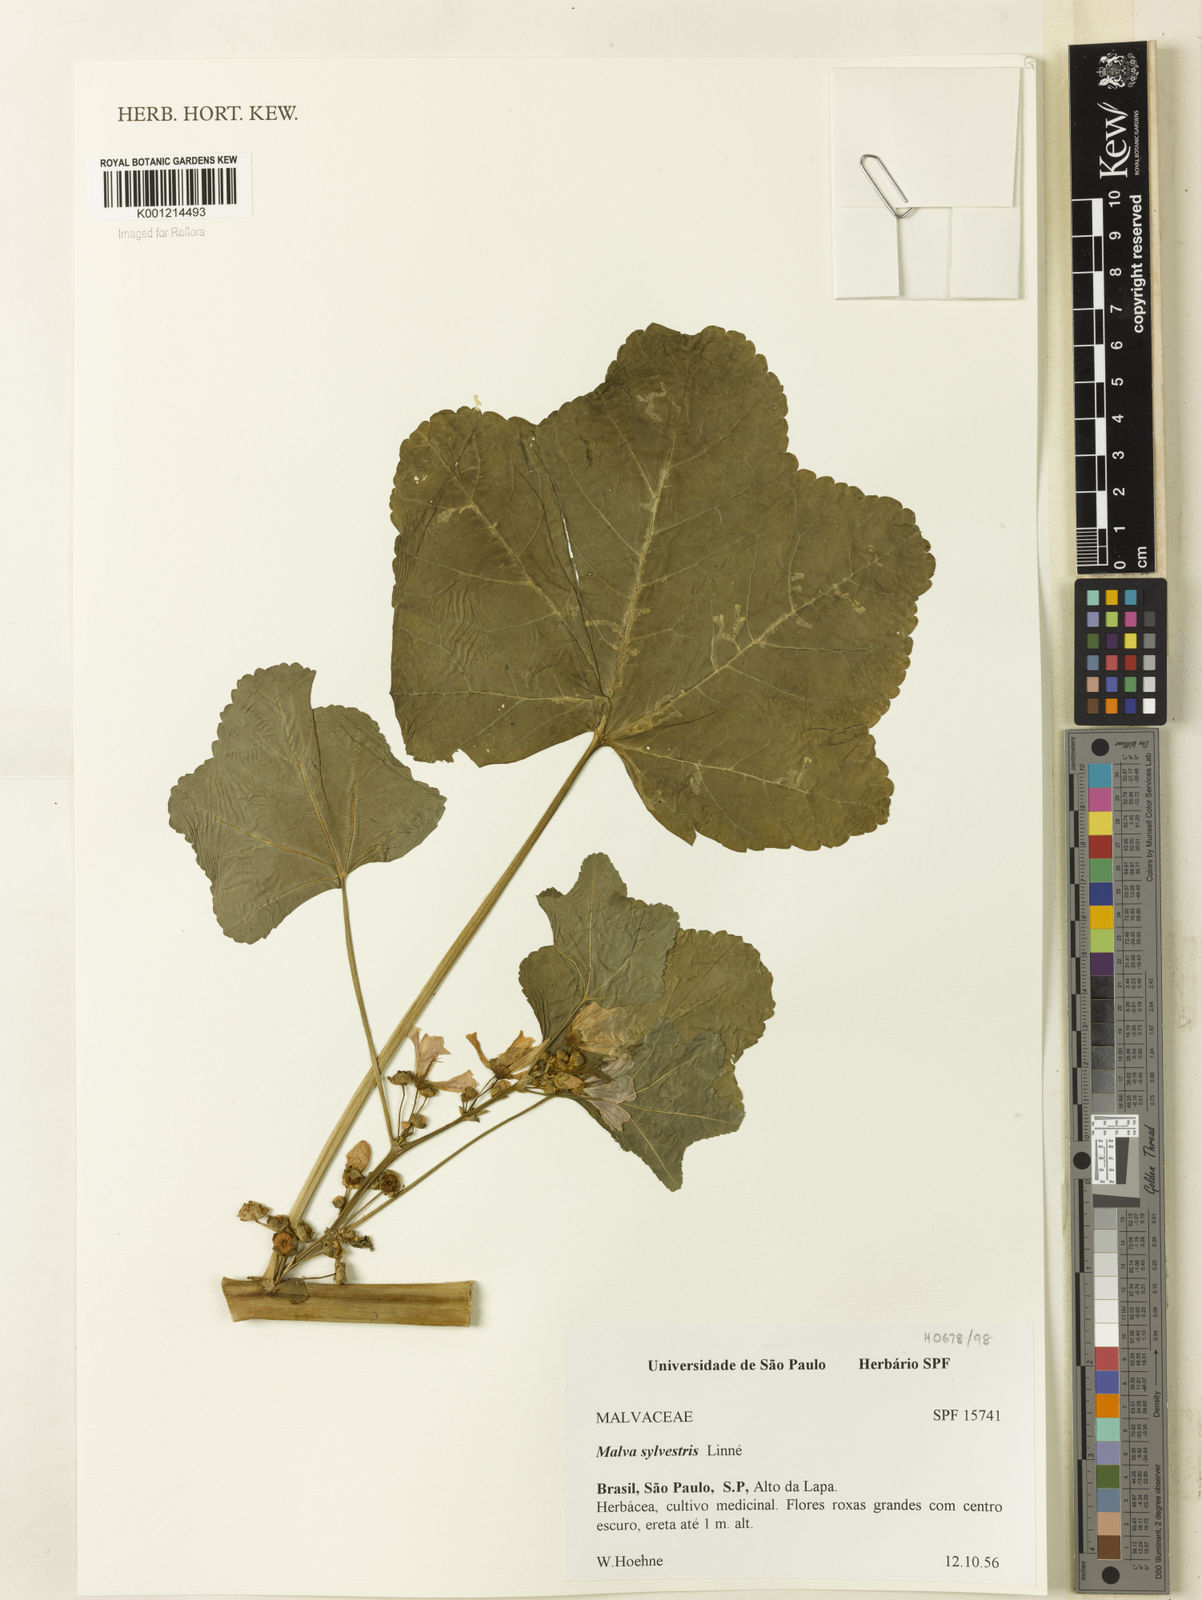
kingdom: Plantae
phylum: Tracheophyta
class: Magnoliopsida
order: Malvales
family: Malvaceae
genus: Malva
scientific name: Malva sylvestris
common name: Common mallow
